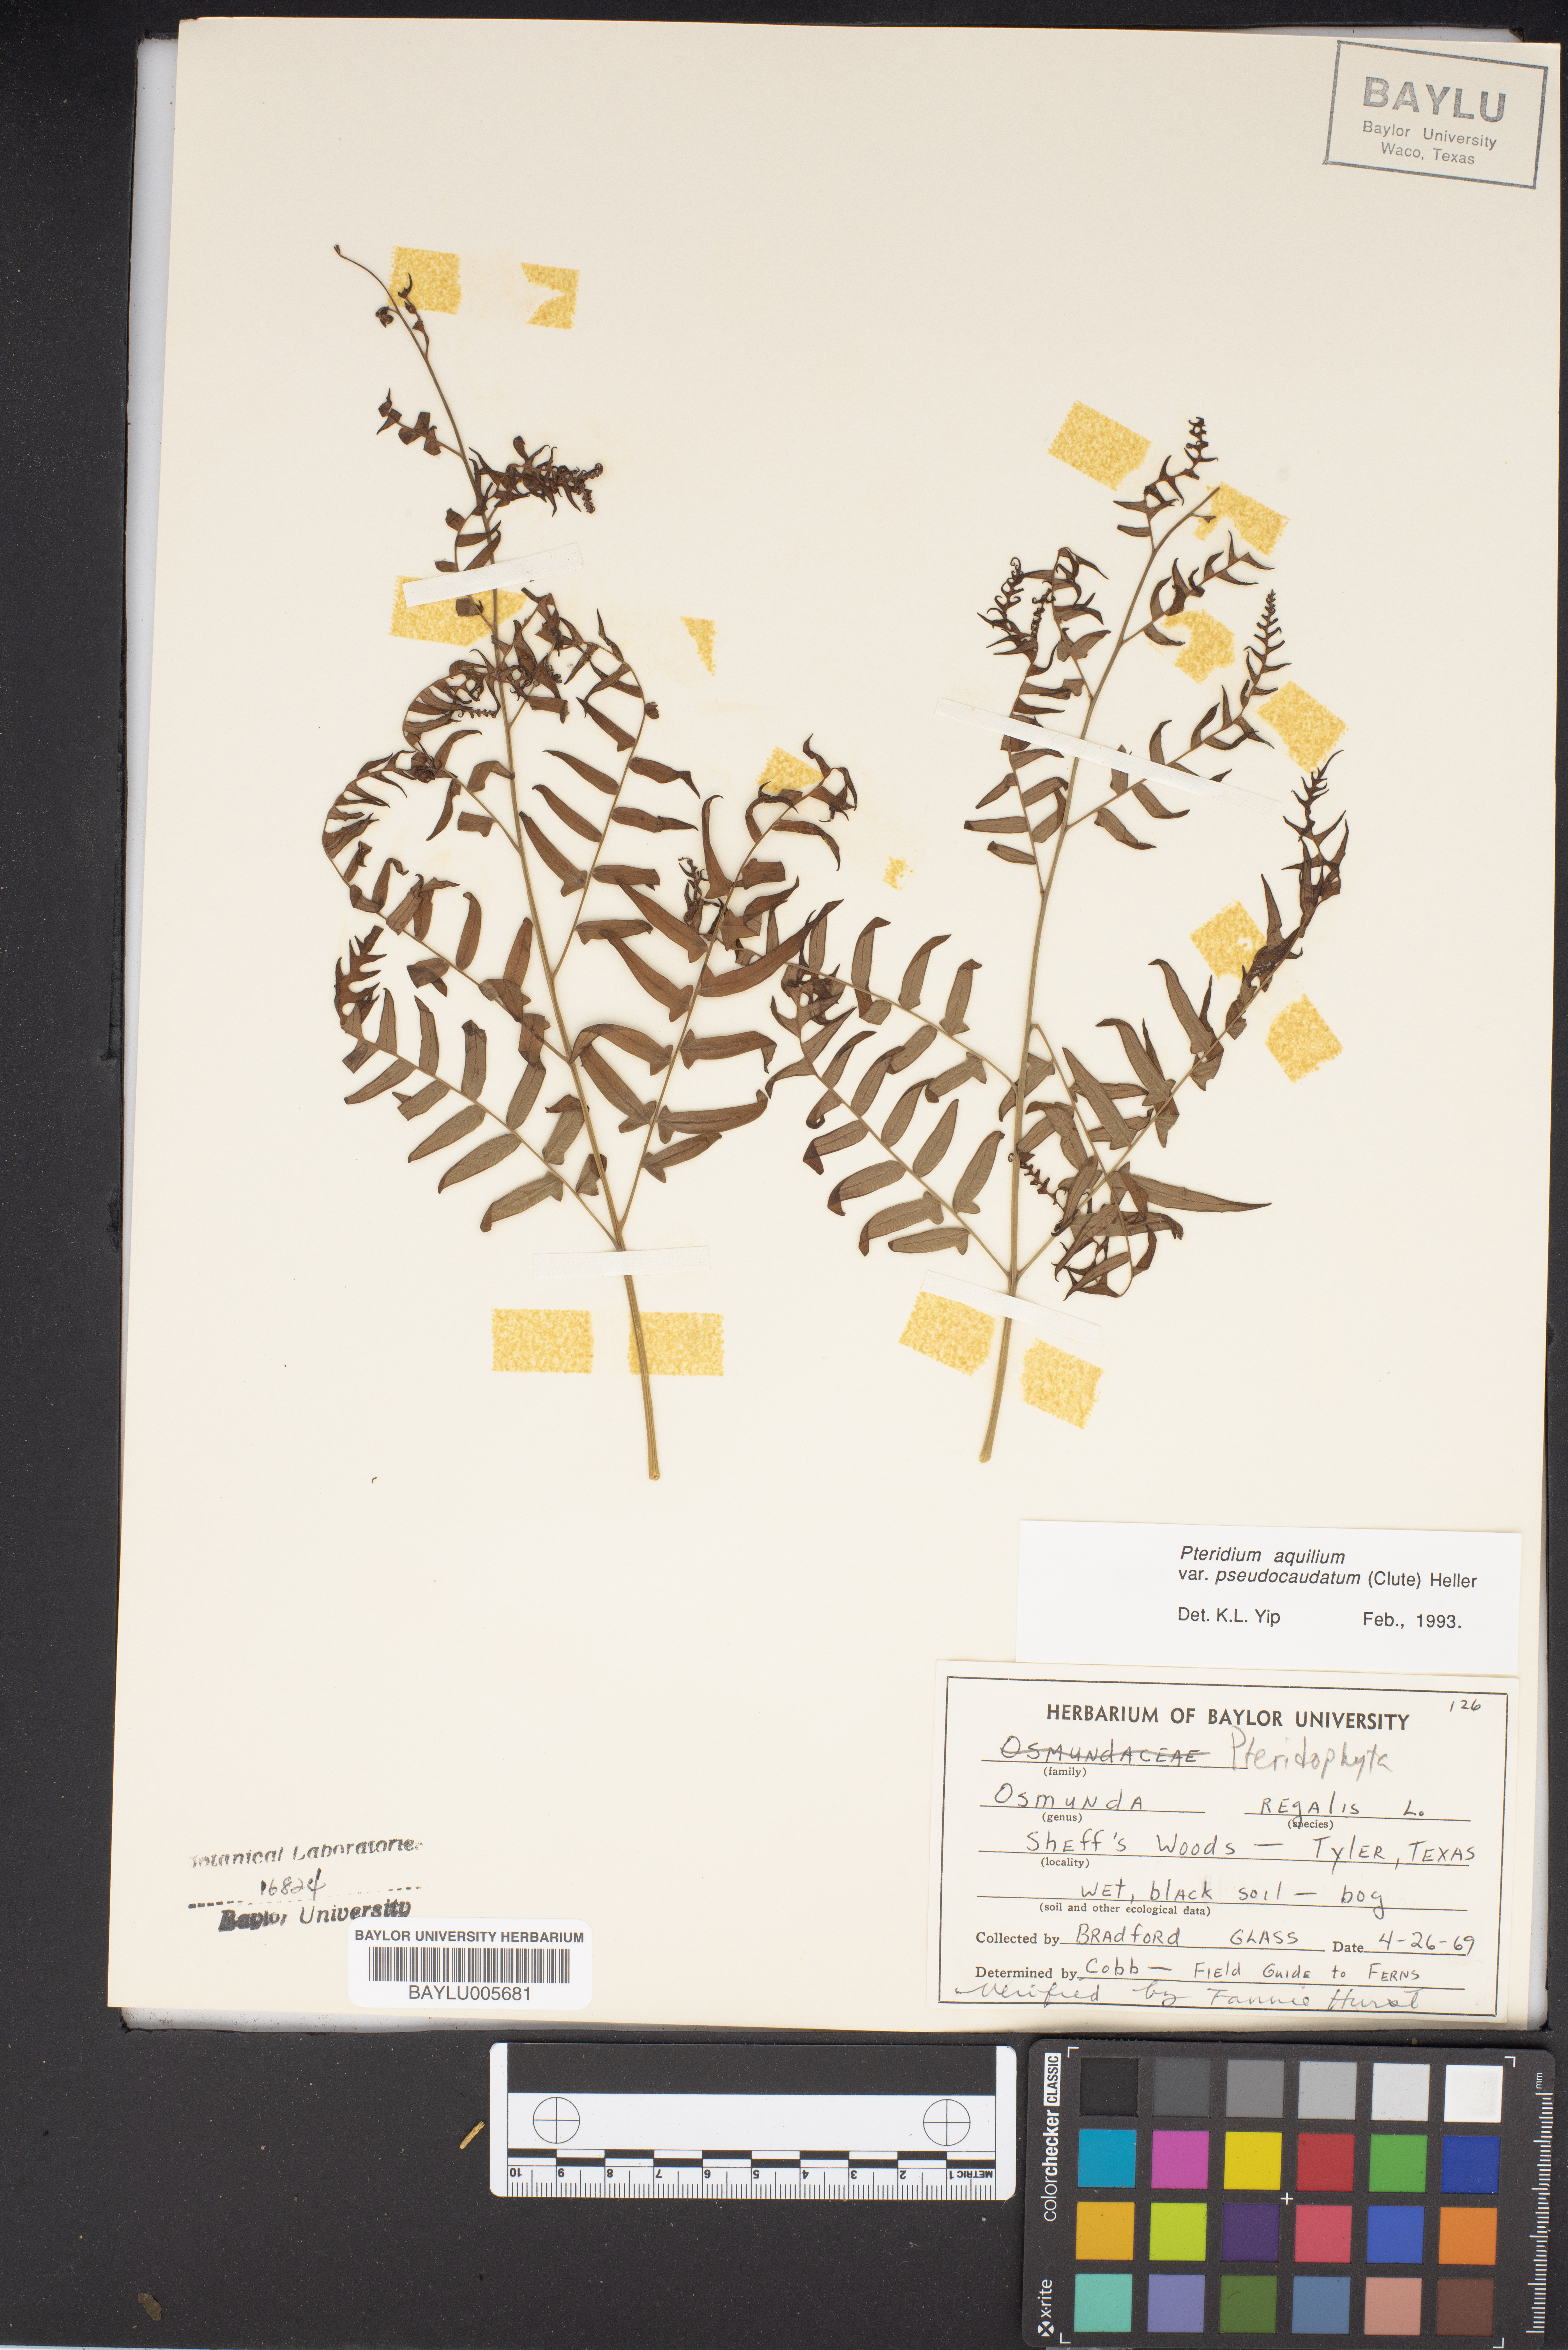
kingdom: Plantae
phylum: Tracheophyta
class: Polypodiopsida
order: Osmundales
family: Osmundaceae
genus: Osmunda
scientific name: Osmunda regalis
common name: Royal fern
